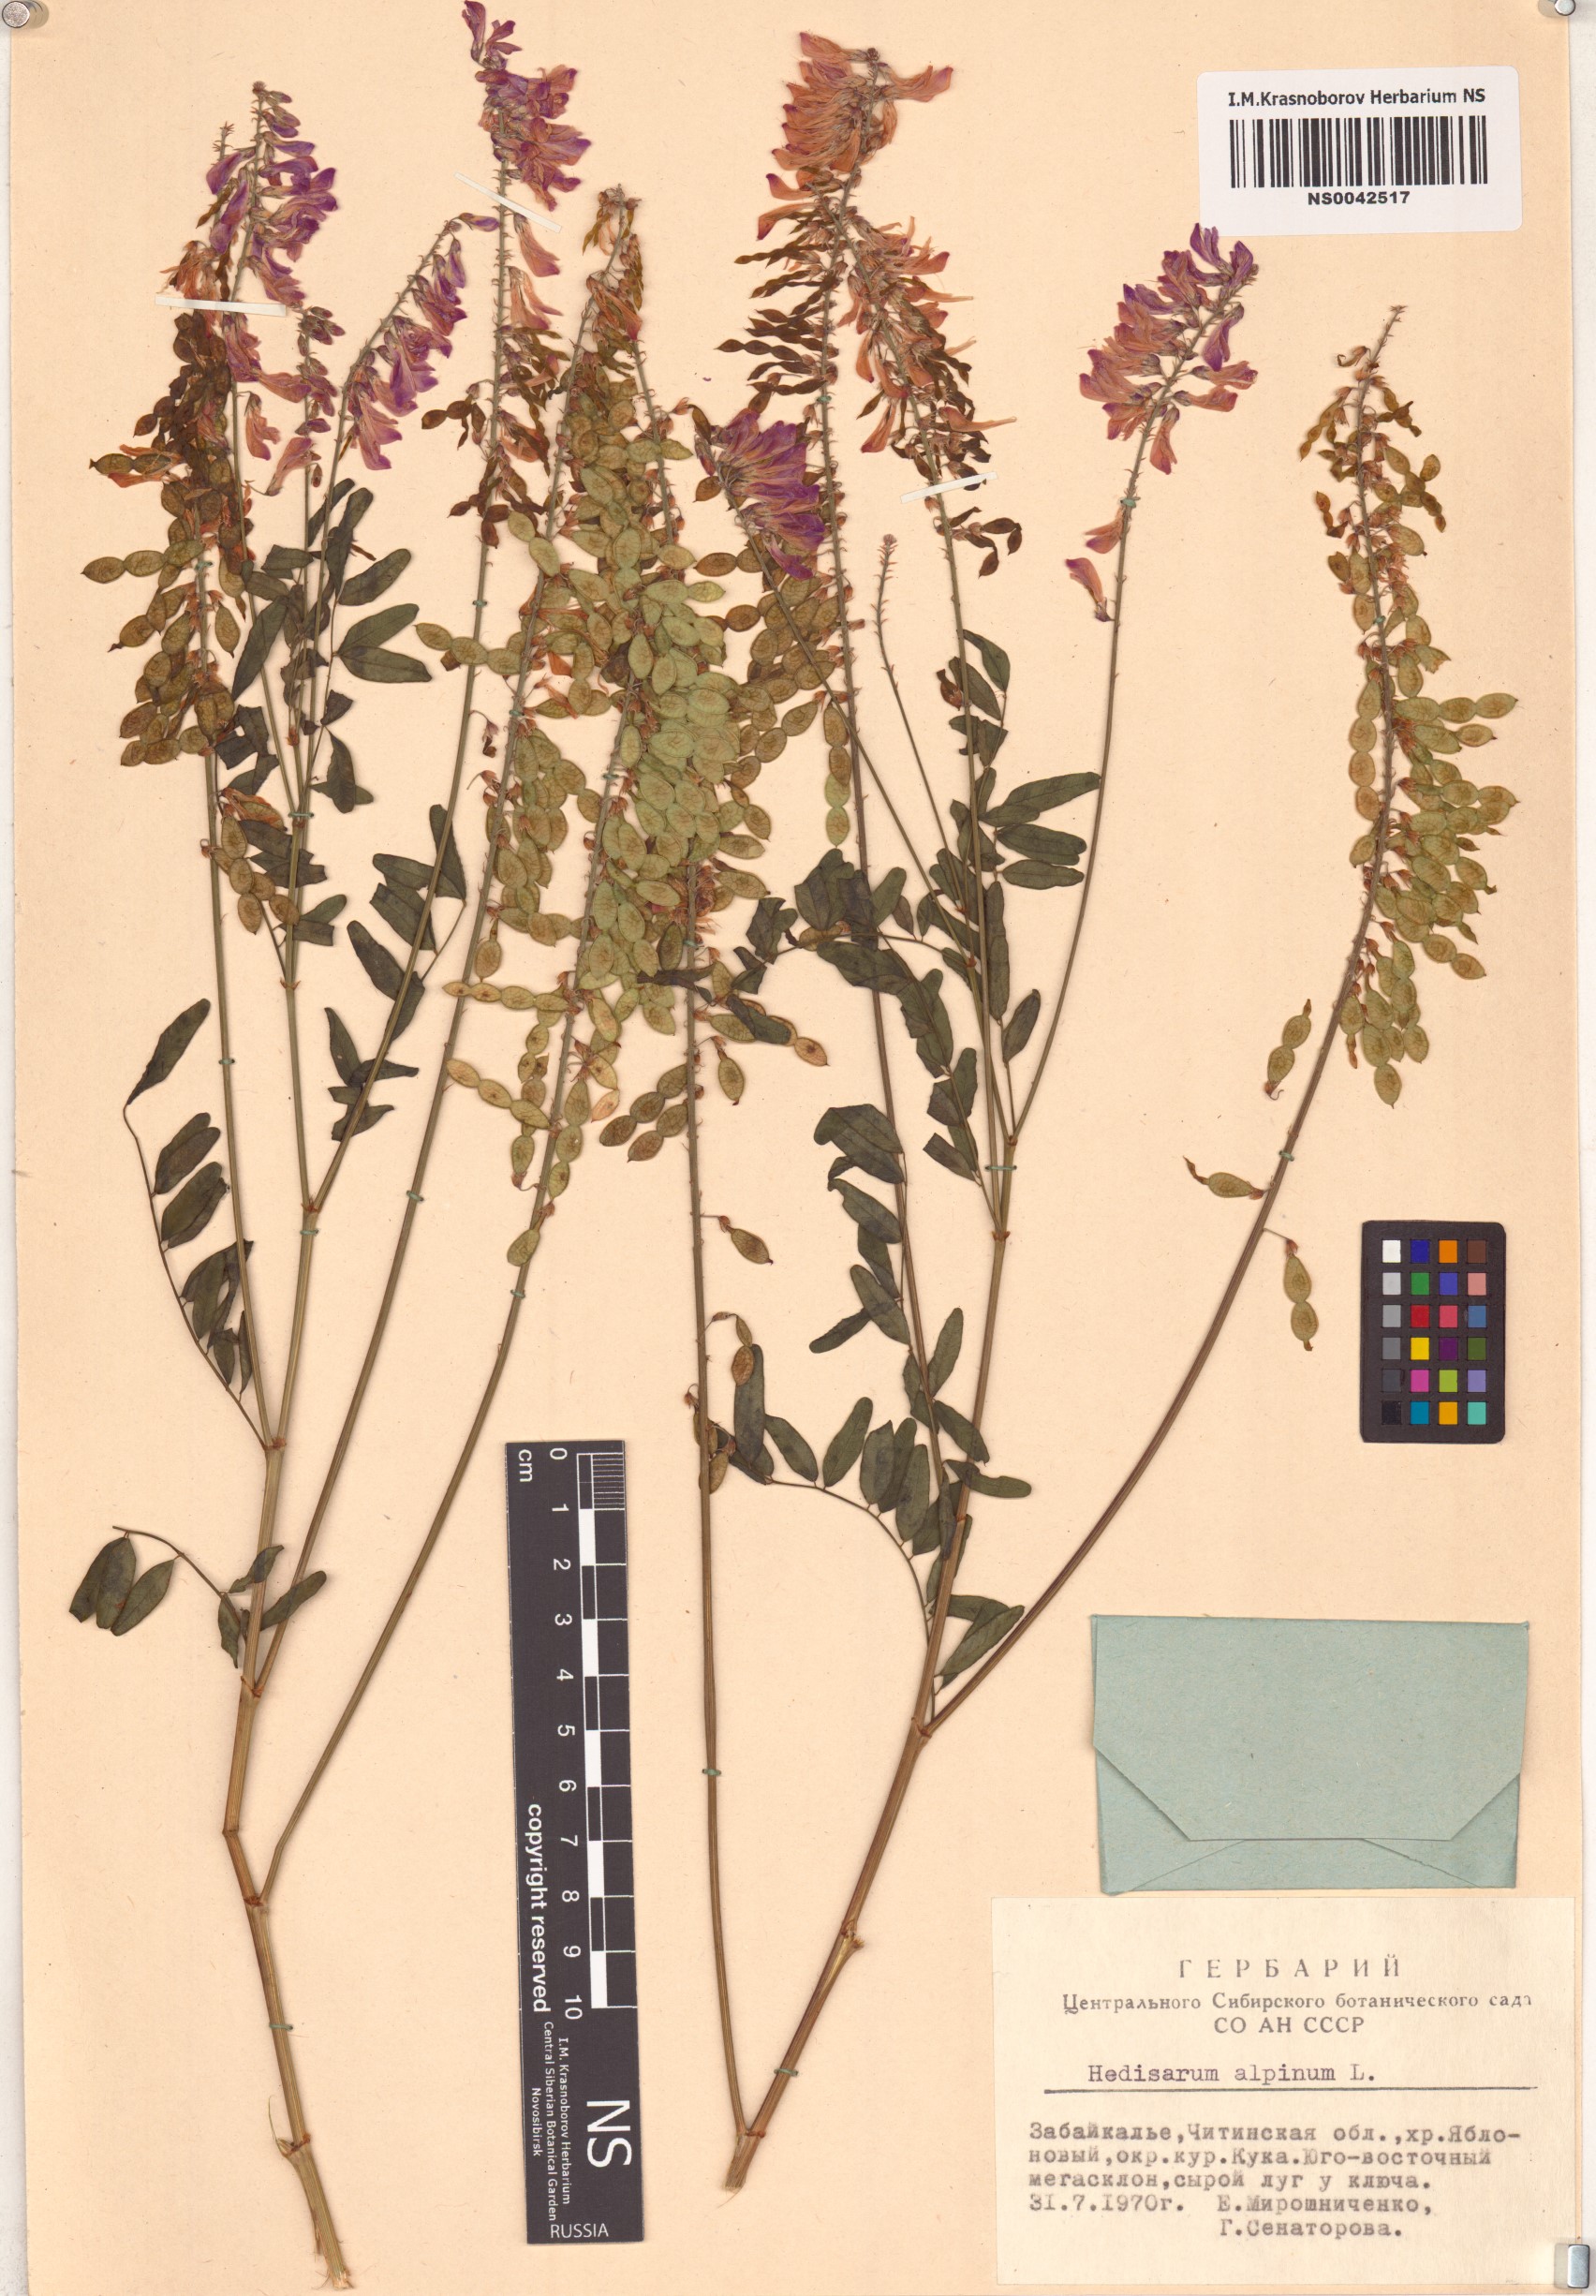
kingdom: Plantae
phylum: Tracheophyta
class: Magnoliopsida
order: Fabales
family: Fabaceae
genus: Hedysarum
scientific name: Hedysarum alpinum
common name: Alpine sweet-vetch
